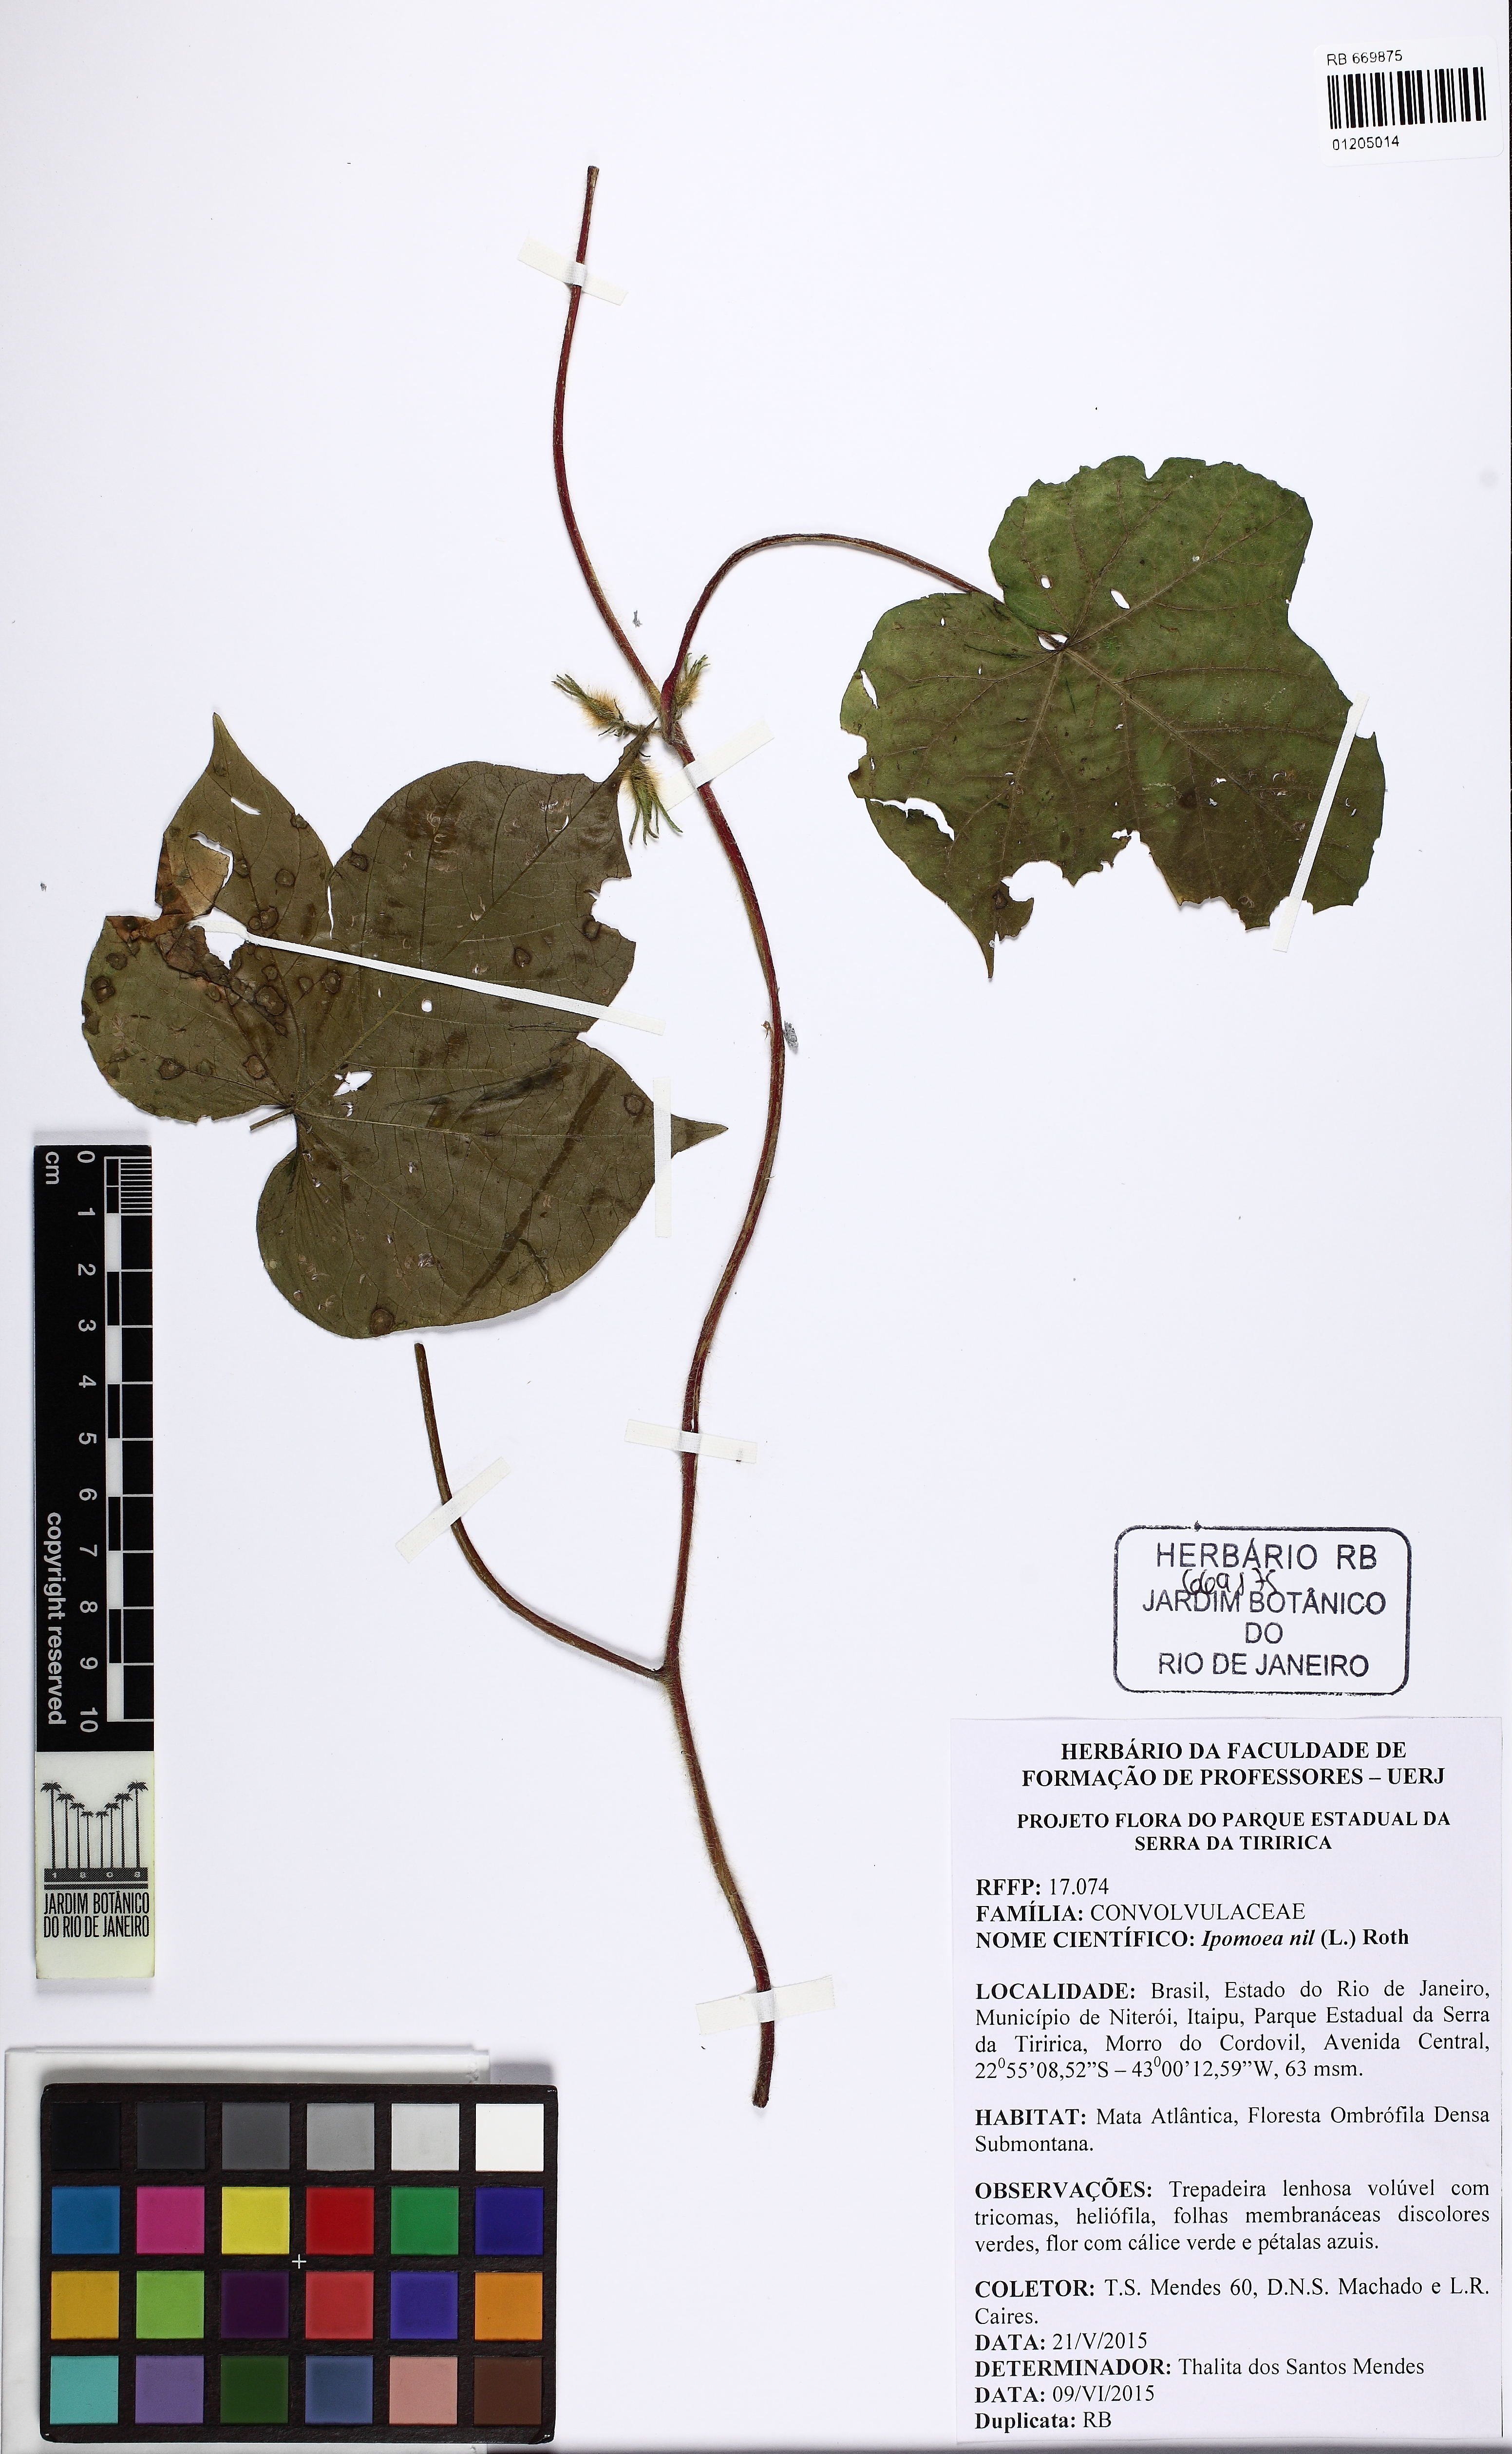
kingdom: Plantae
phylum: Tracheophyta
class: Magnoliopsida
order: Solanales
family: Convolvulaceae
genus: Ipomoea
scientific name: Ipomoea nil
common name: Japanese morning-glory
